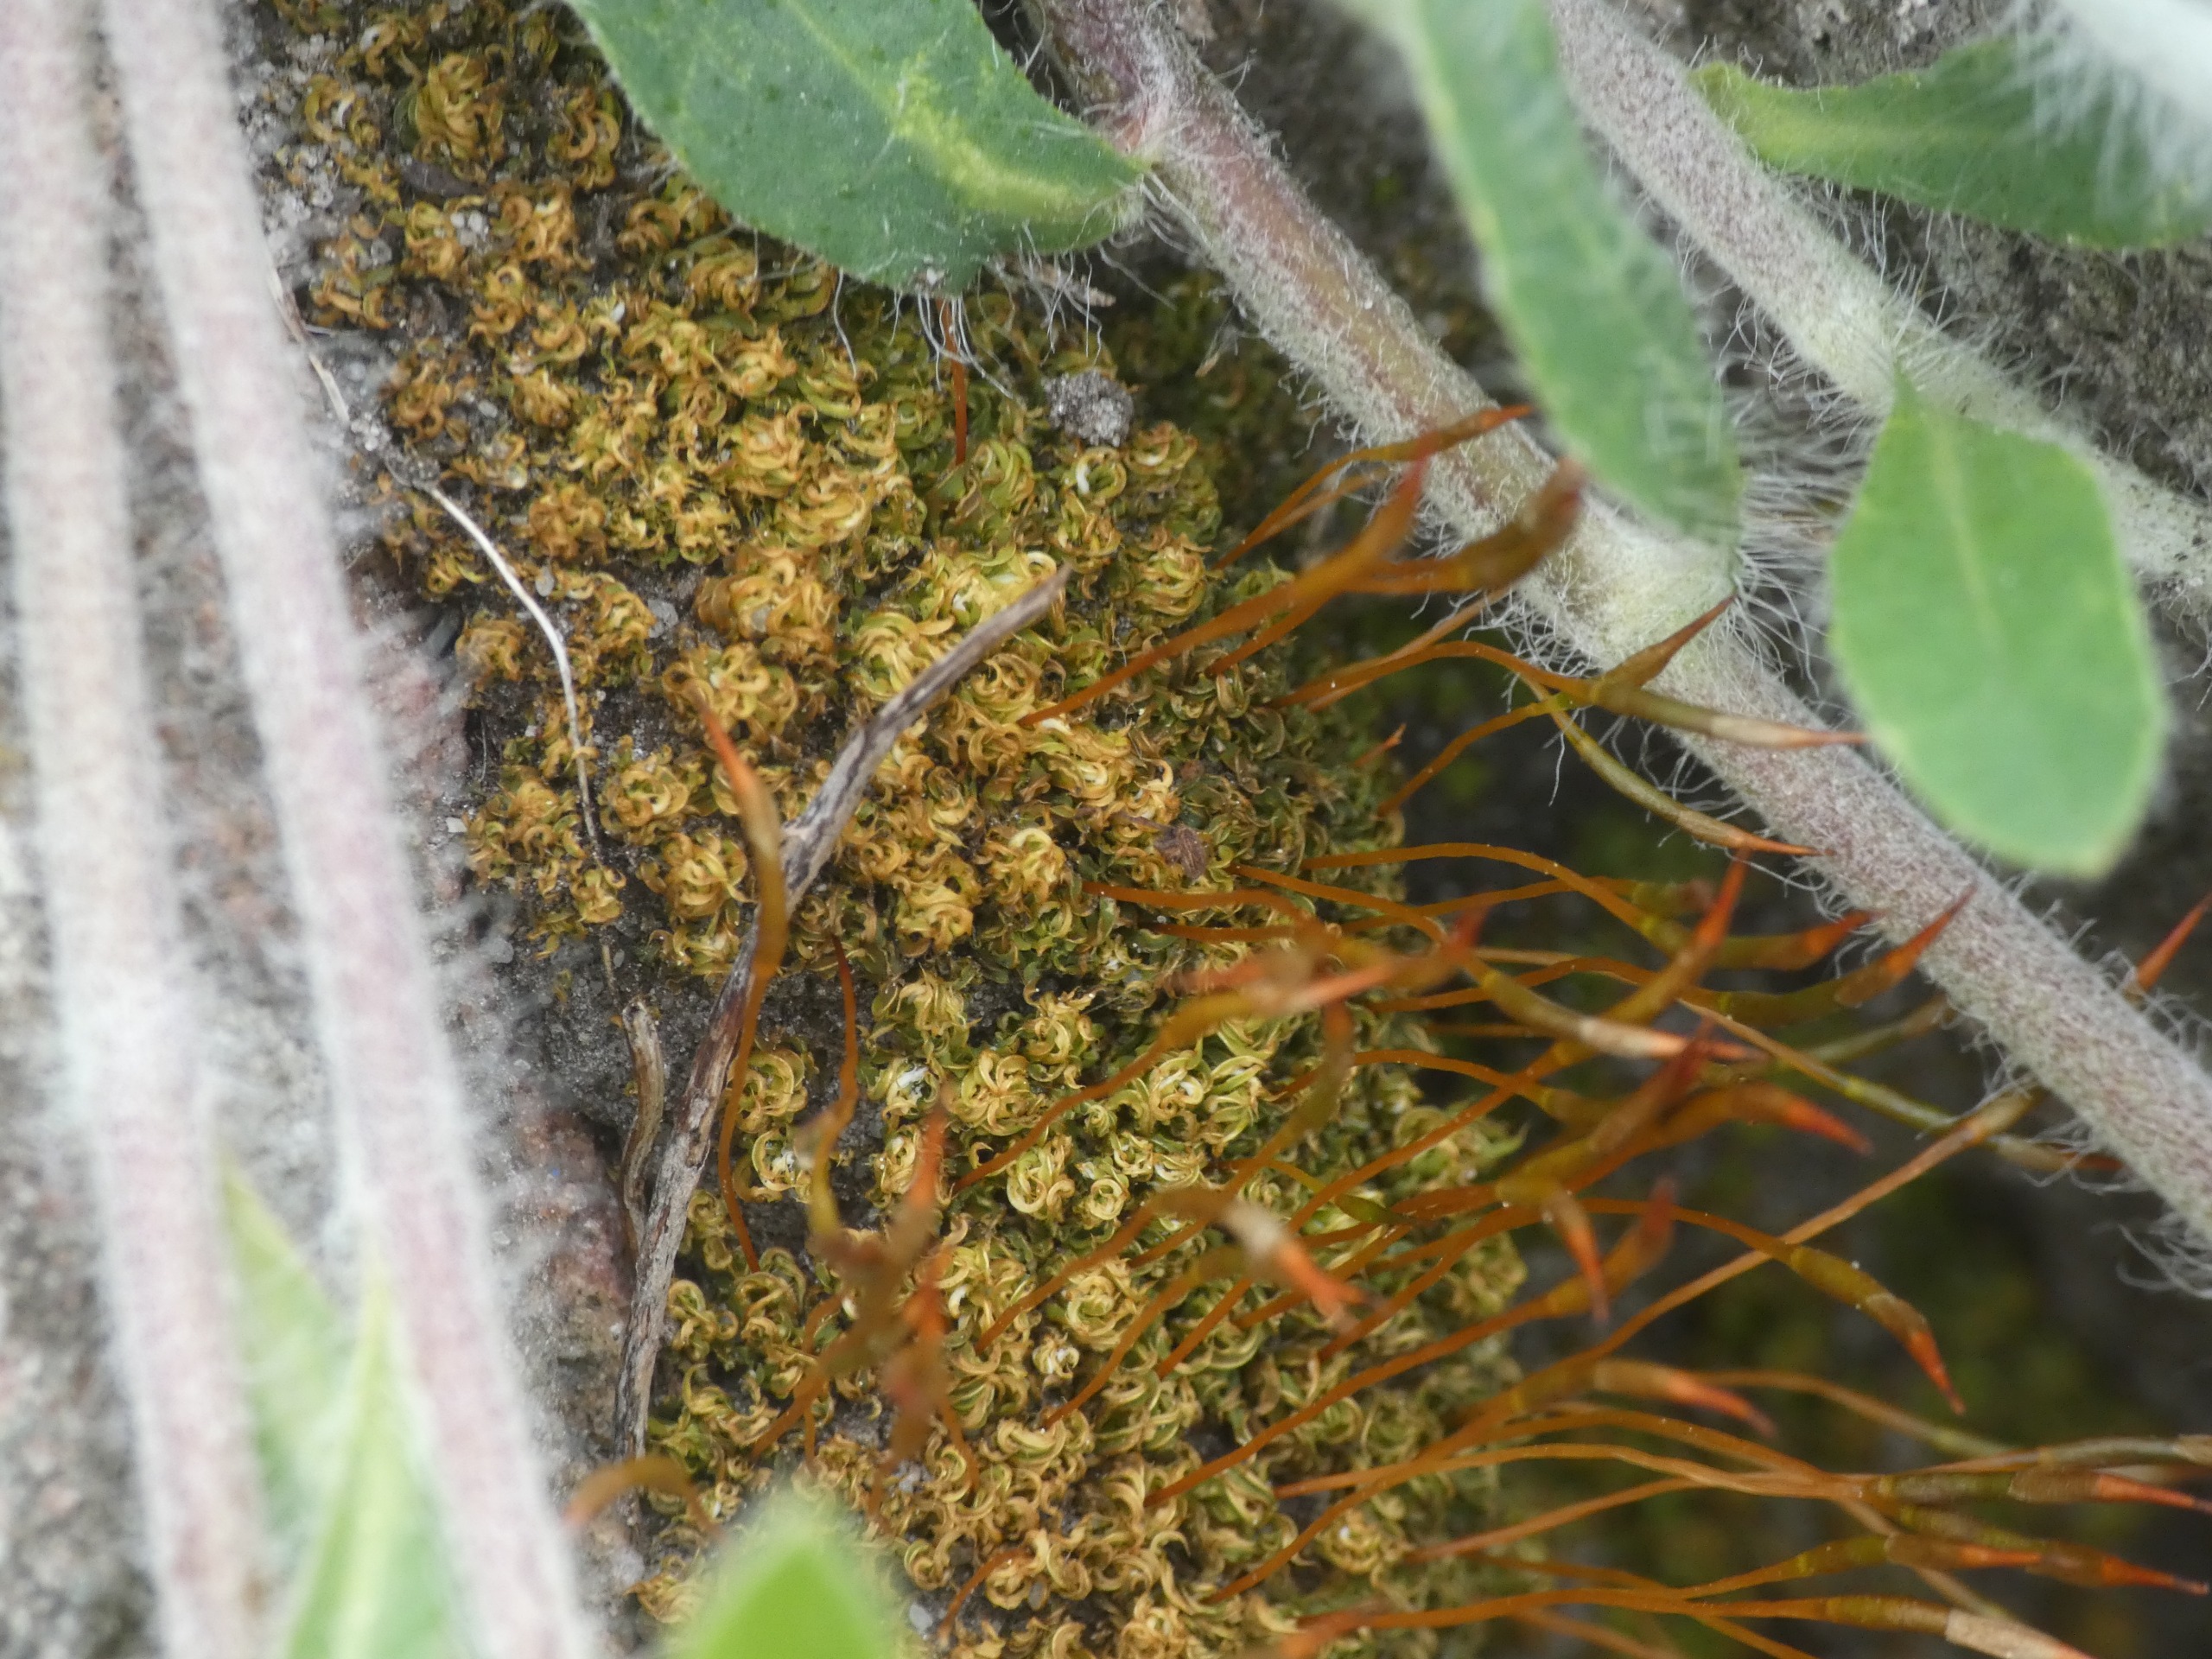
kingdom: Plantae
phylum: Bryophyta
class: Bryopsida
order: Pottiales
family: Pottiaceae
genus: Tortula
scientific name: Tortula subulata
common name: Syl-snotand
